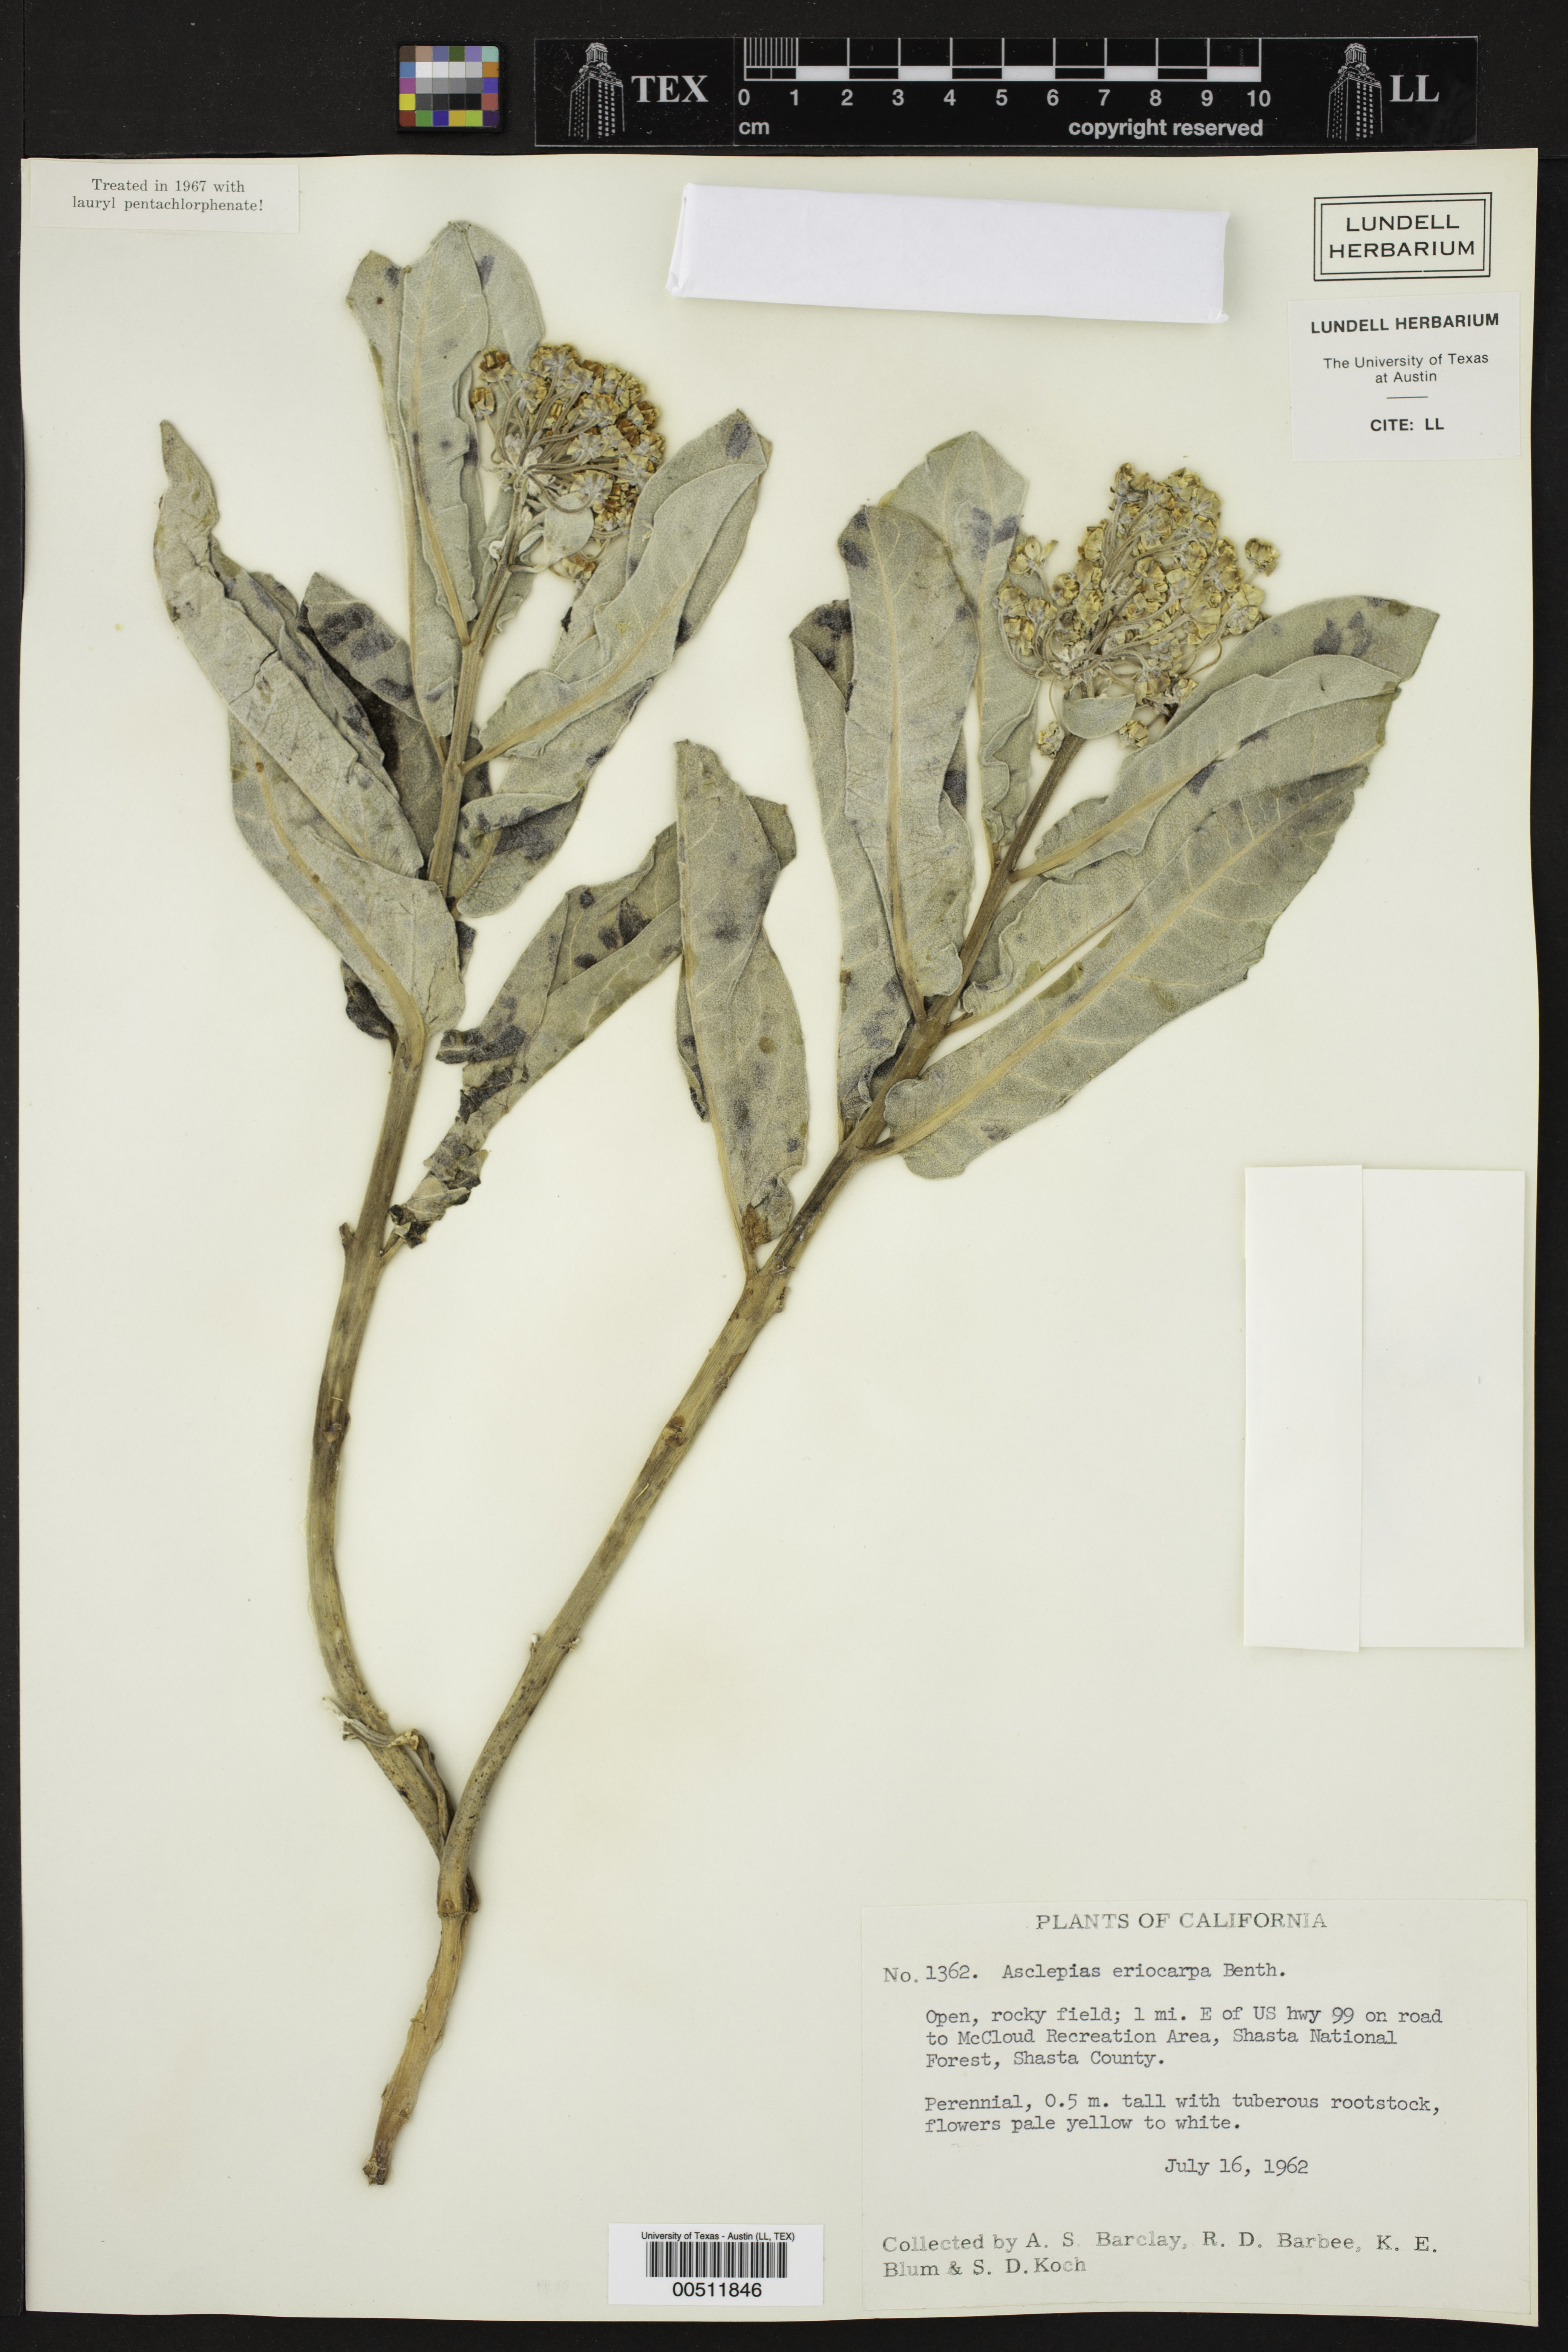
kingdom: Plantae
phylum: Tracheophyta
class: Magnoliopsida
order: Gentianales
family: Apocynaceae
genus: Asclepias
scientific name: Asclepias eriocarpa
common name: Indian milkweed
